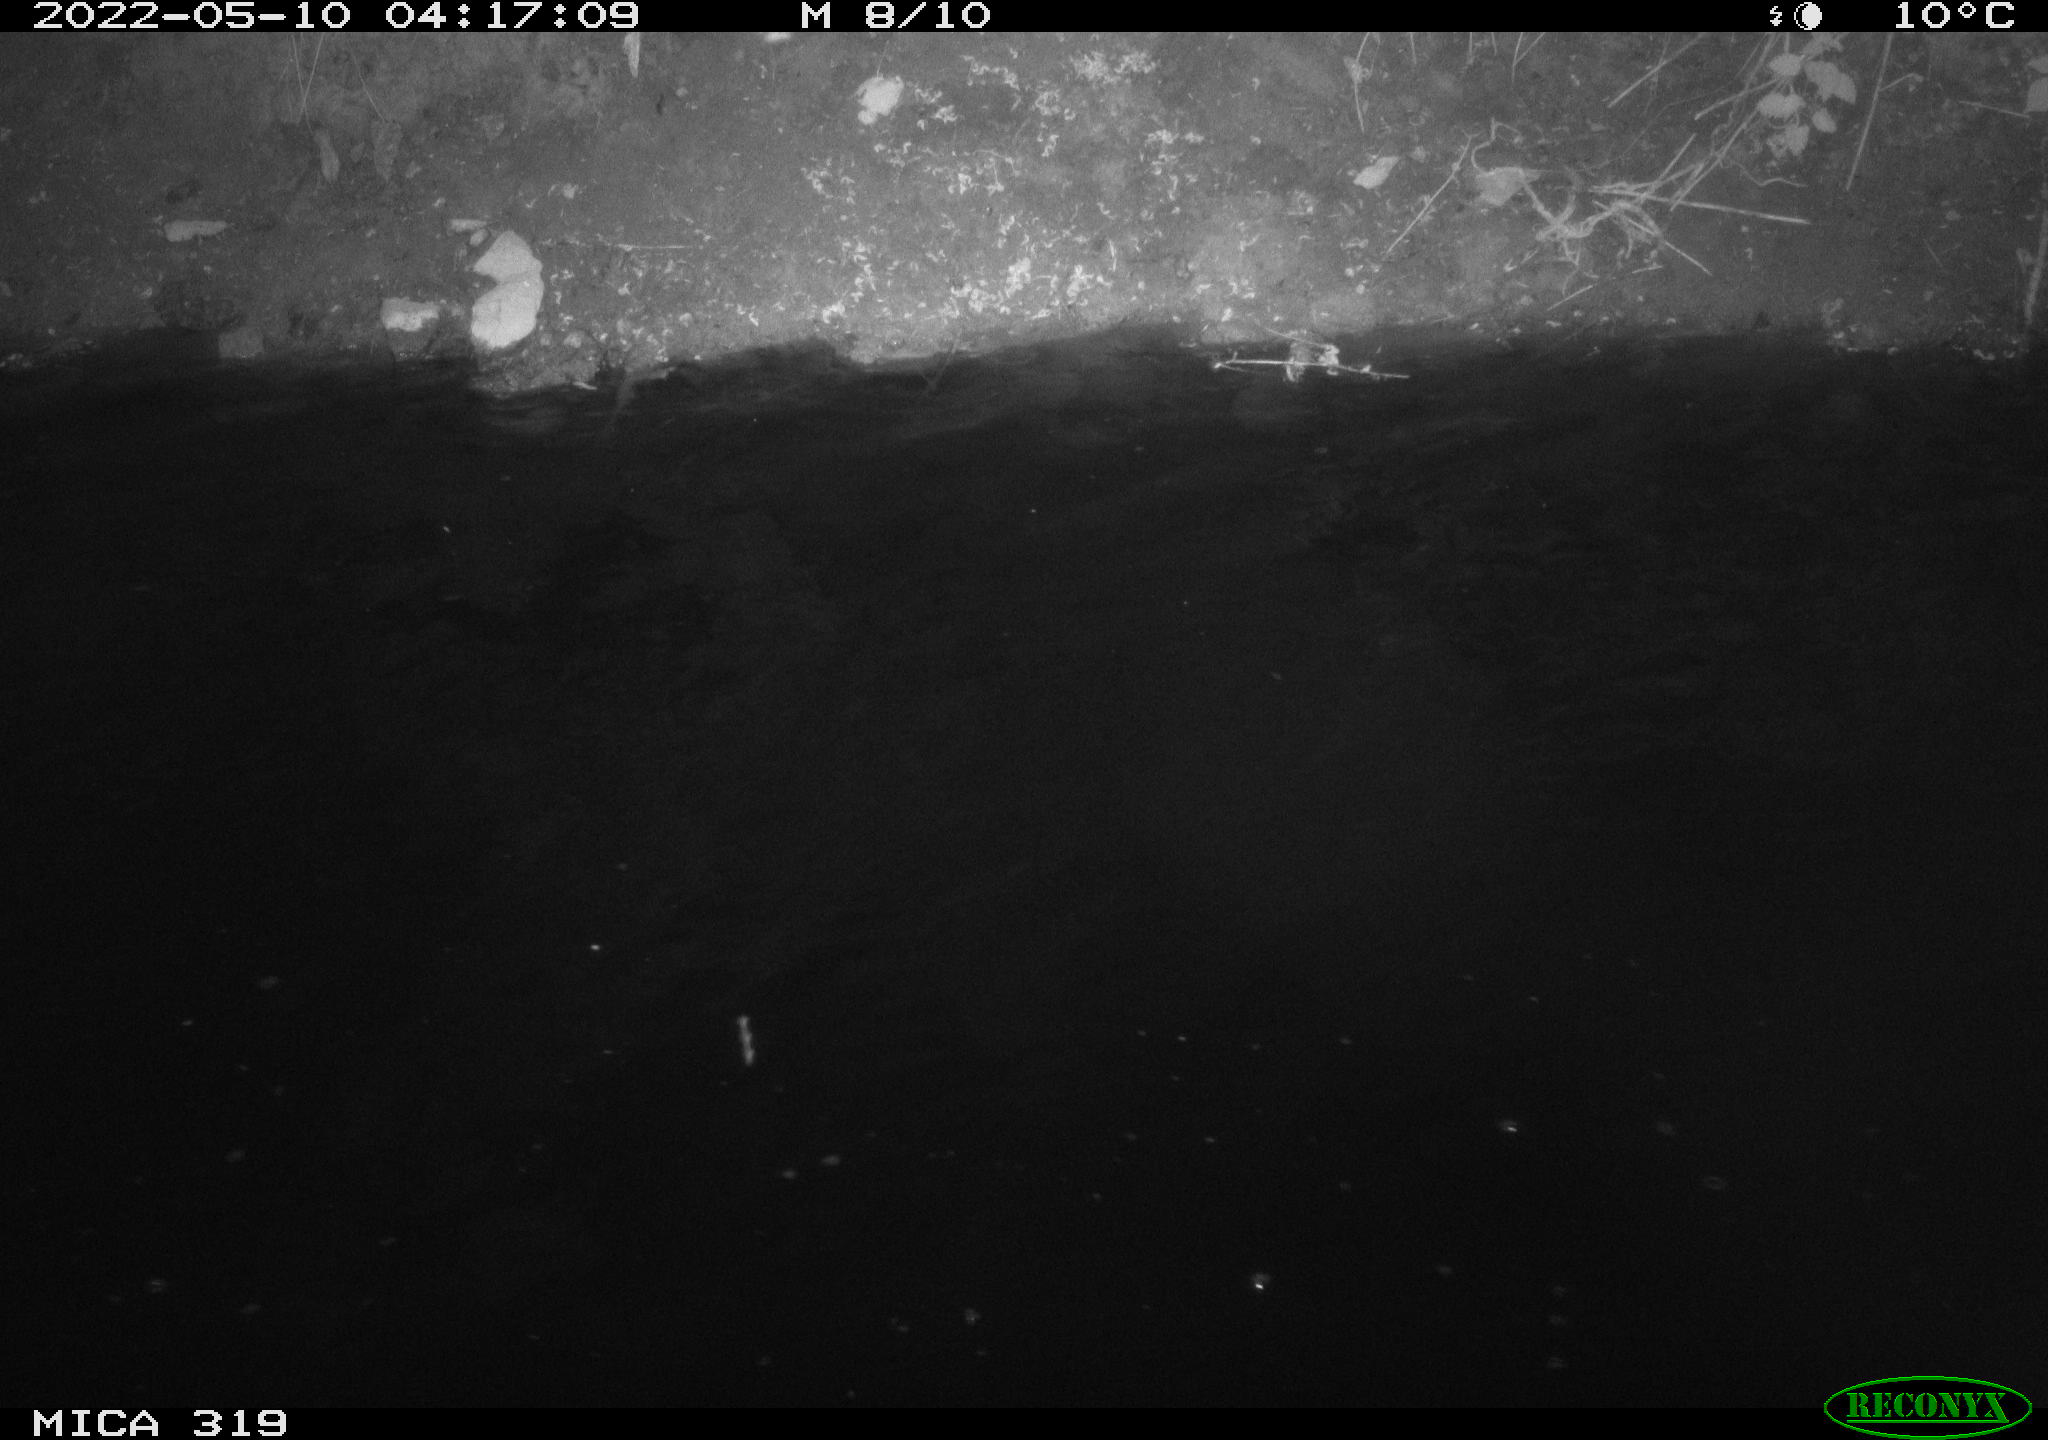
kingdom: Animalia
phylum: Chordata
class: Aves
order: Anseriformes
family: Anatidae
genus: Anas
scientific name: Anas platyrhynchos
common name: Mallard
